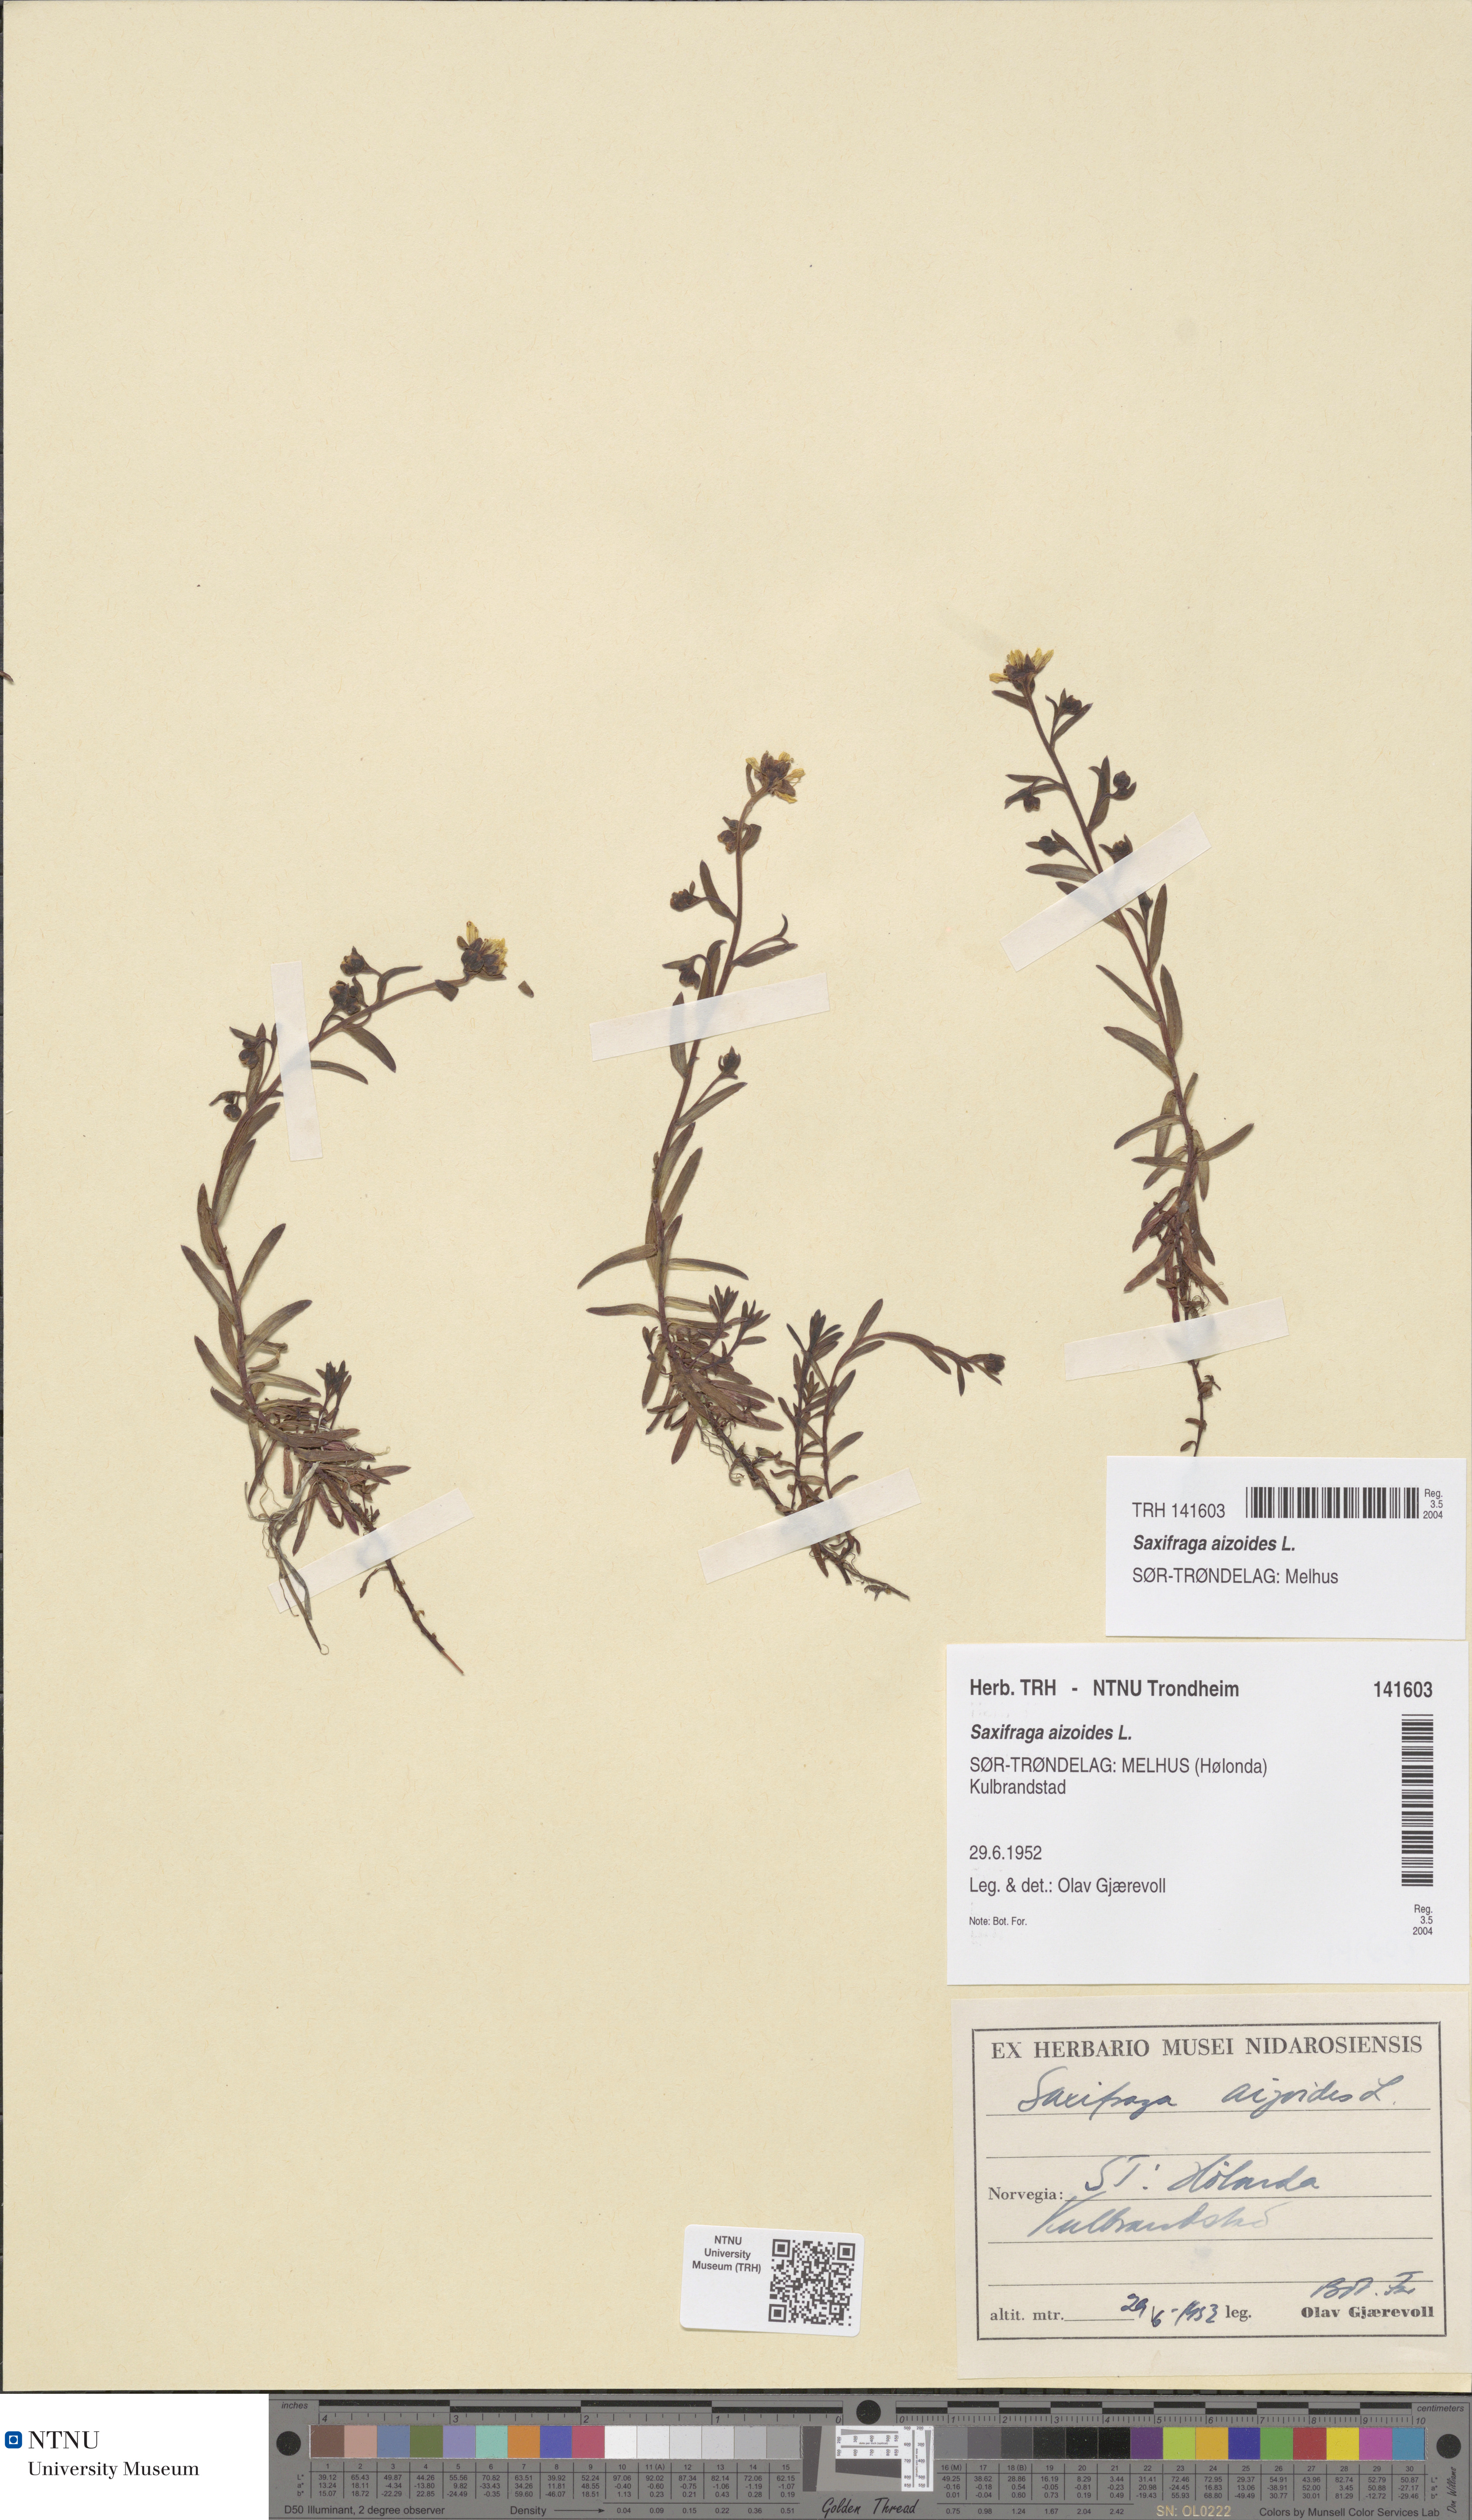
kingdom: Plantae
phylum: Tracheophyta
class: Magnoliopsida
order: Saxifragales
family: Saxifragaceae
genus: Saxifraga
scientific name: Saxifraga aizoides
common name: Yellow mountain saxifrage
